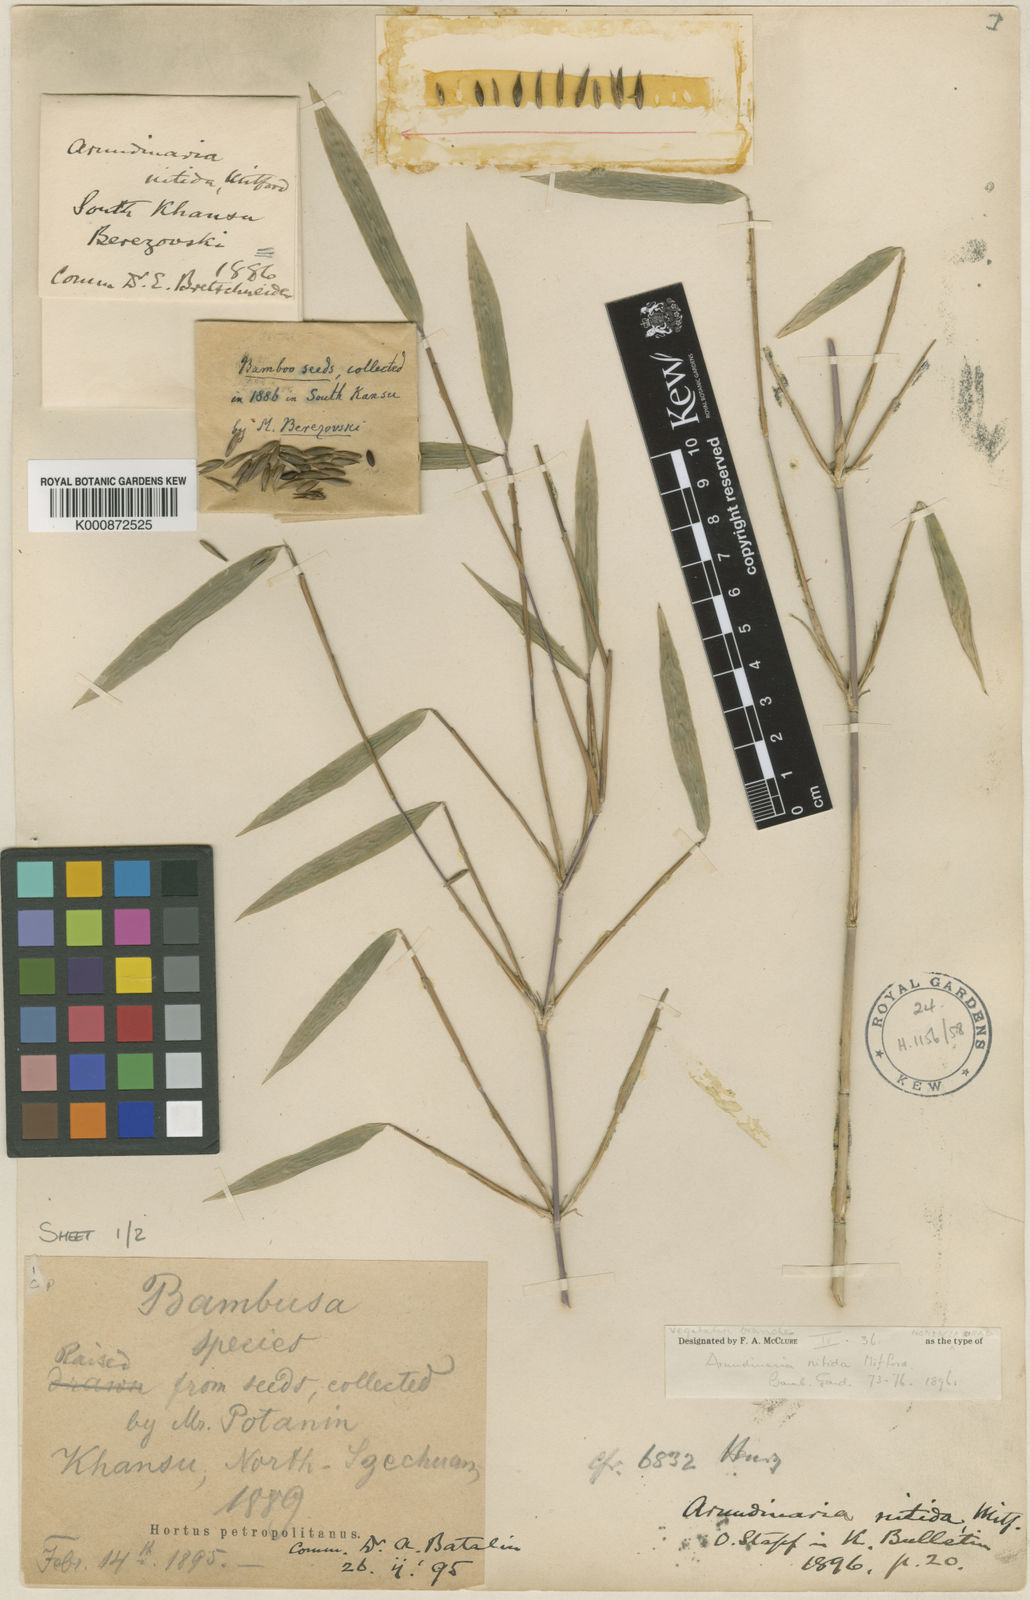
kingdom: Plantae
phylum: Tracheophyta
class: Liliopsida
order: Poales
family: Poaceae
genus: Fargesia
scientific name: Fargesia nitida ex
